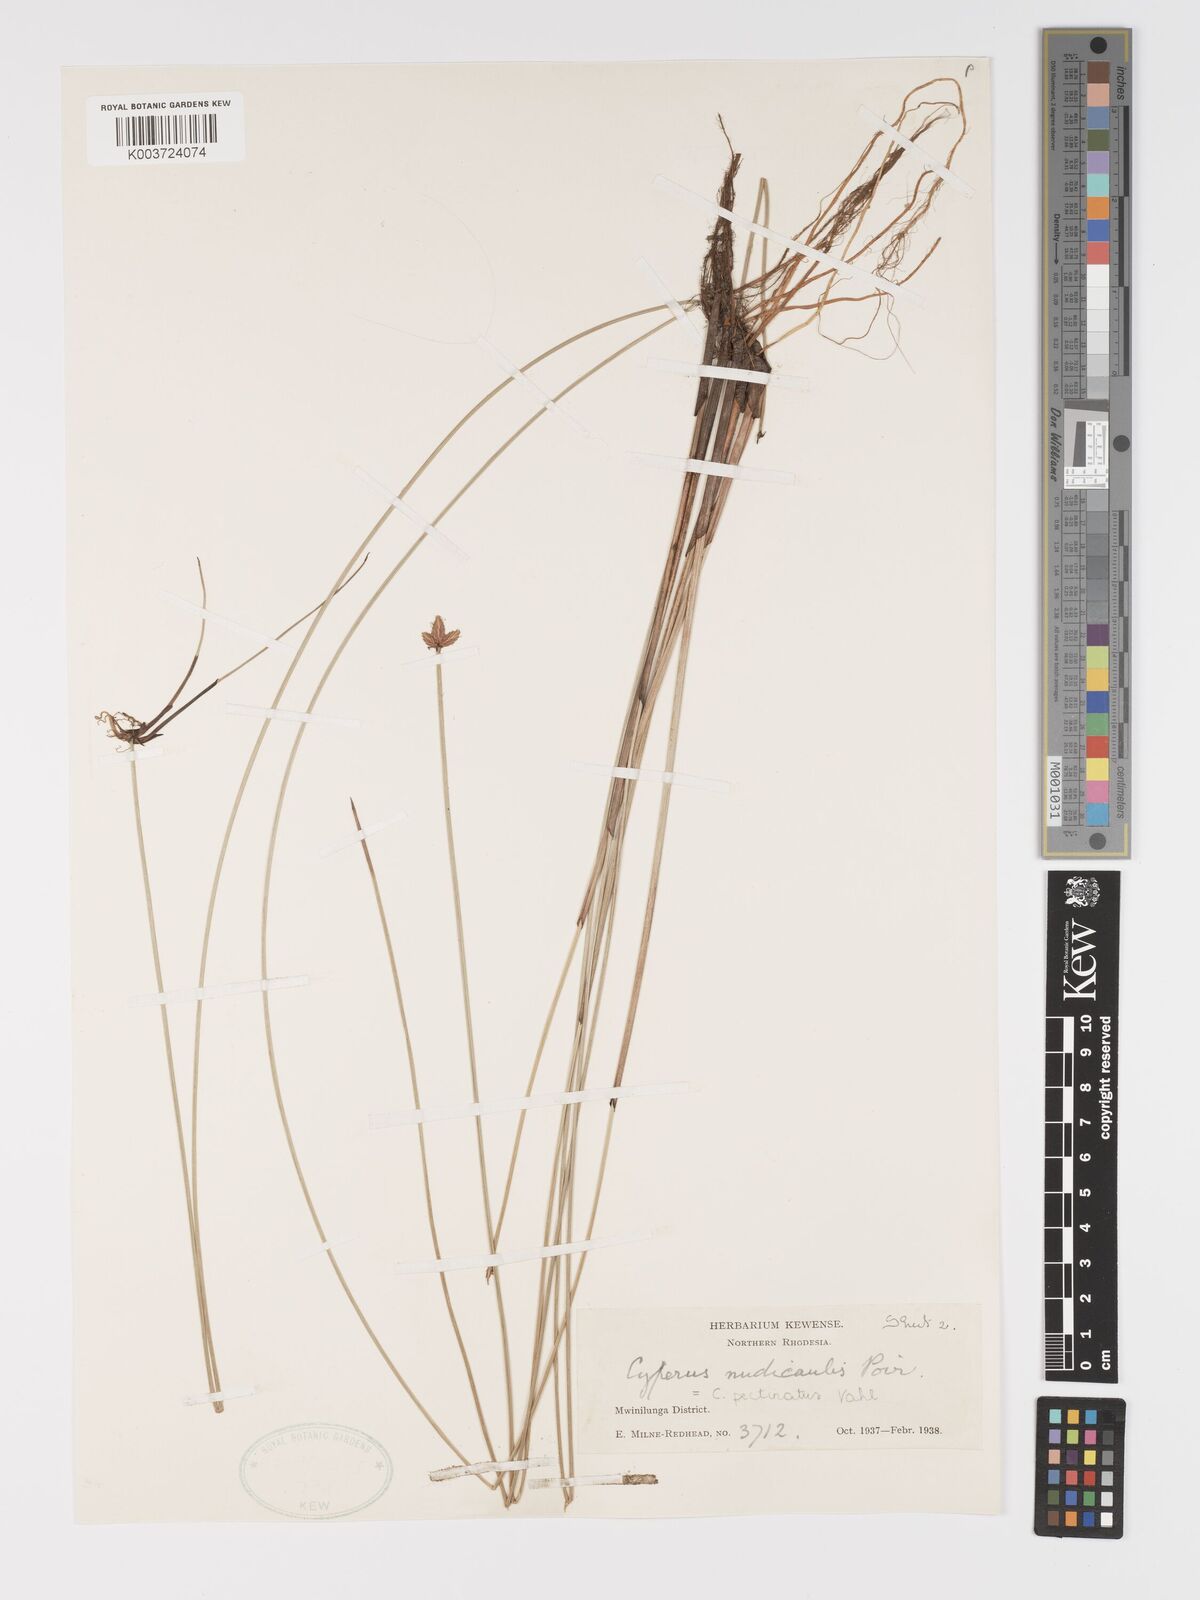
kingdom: Plantae
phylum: Tracheophyta
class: Liliopsida
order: Poales
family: Cyperaceae
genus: Cyperus
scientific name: Cyperus compressus
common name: Poorland flatsedge
